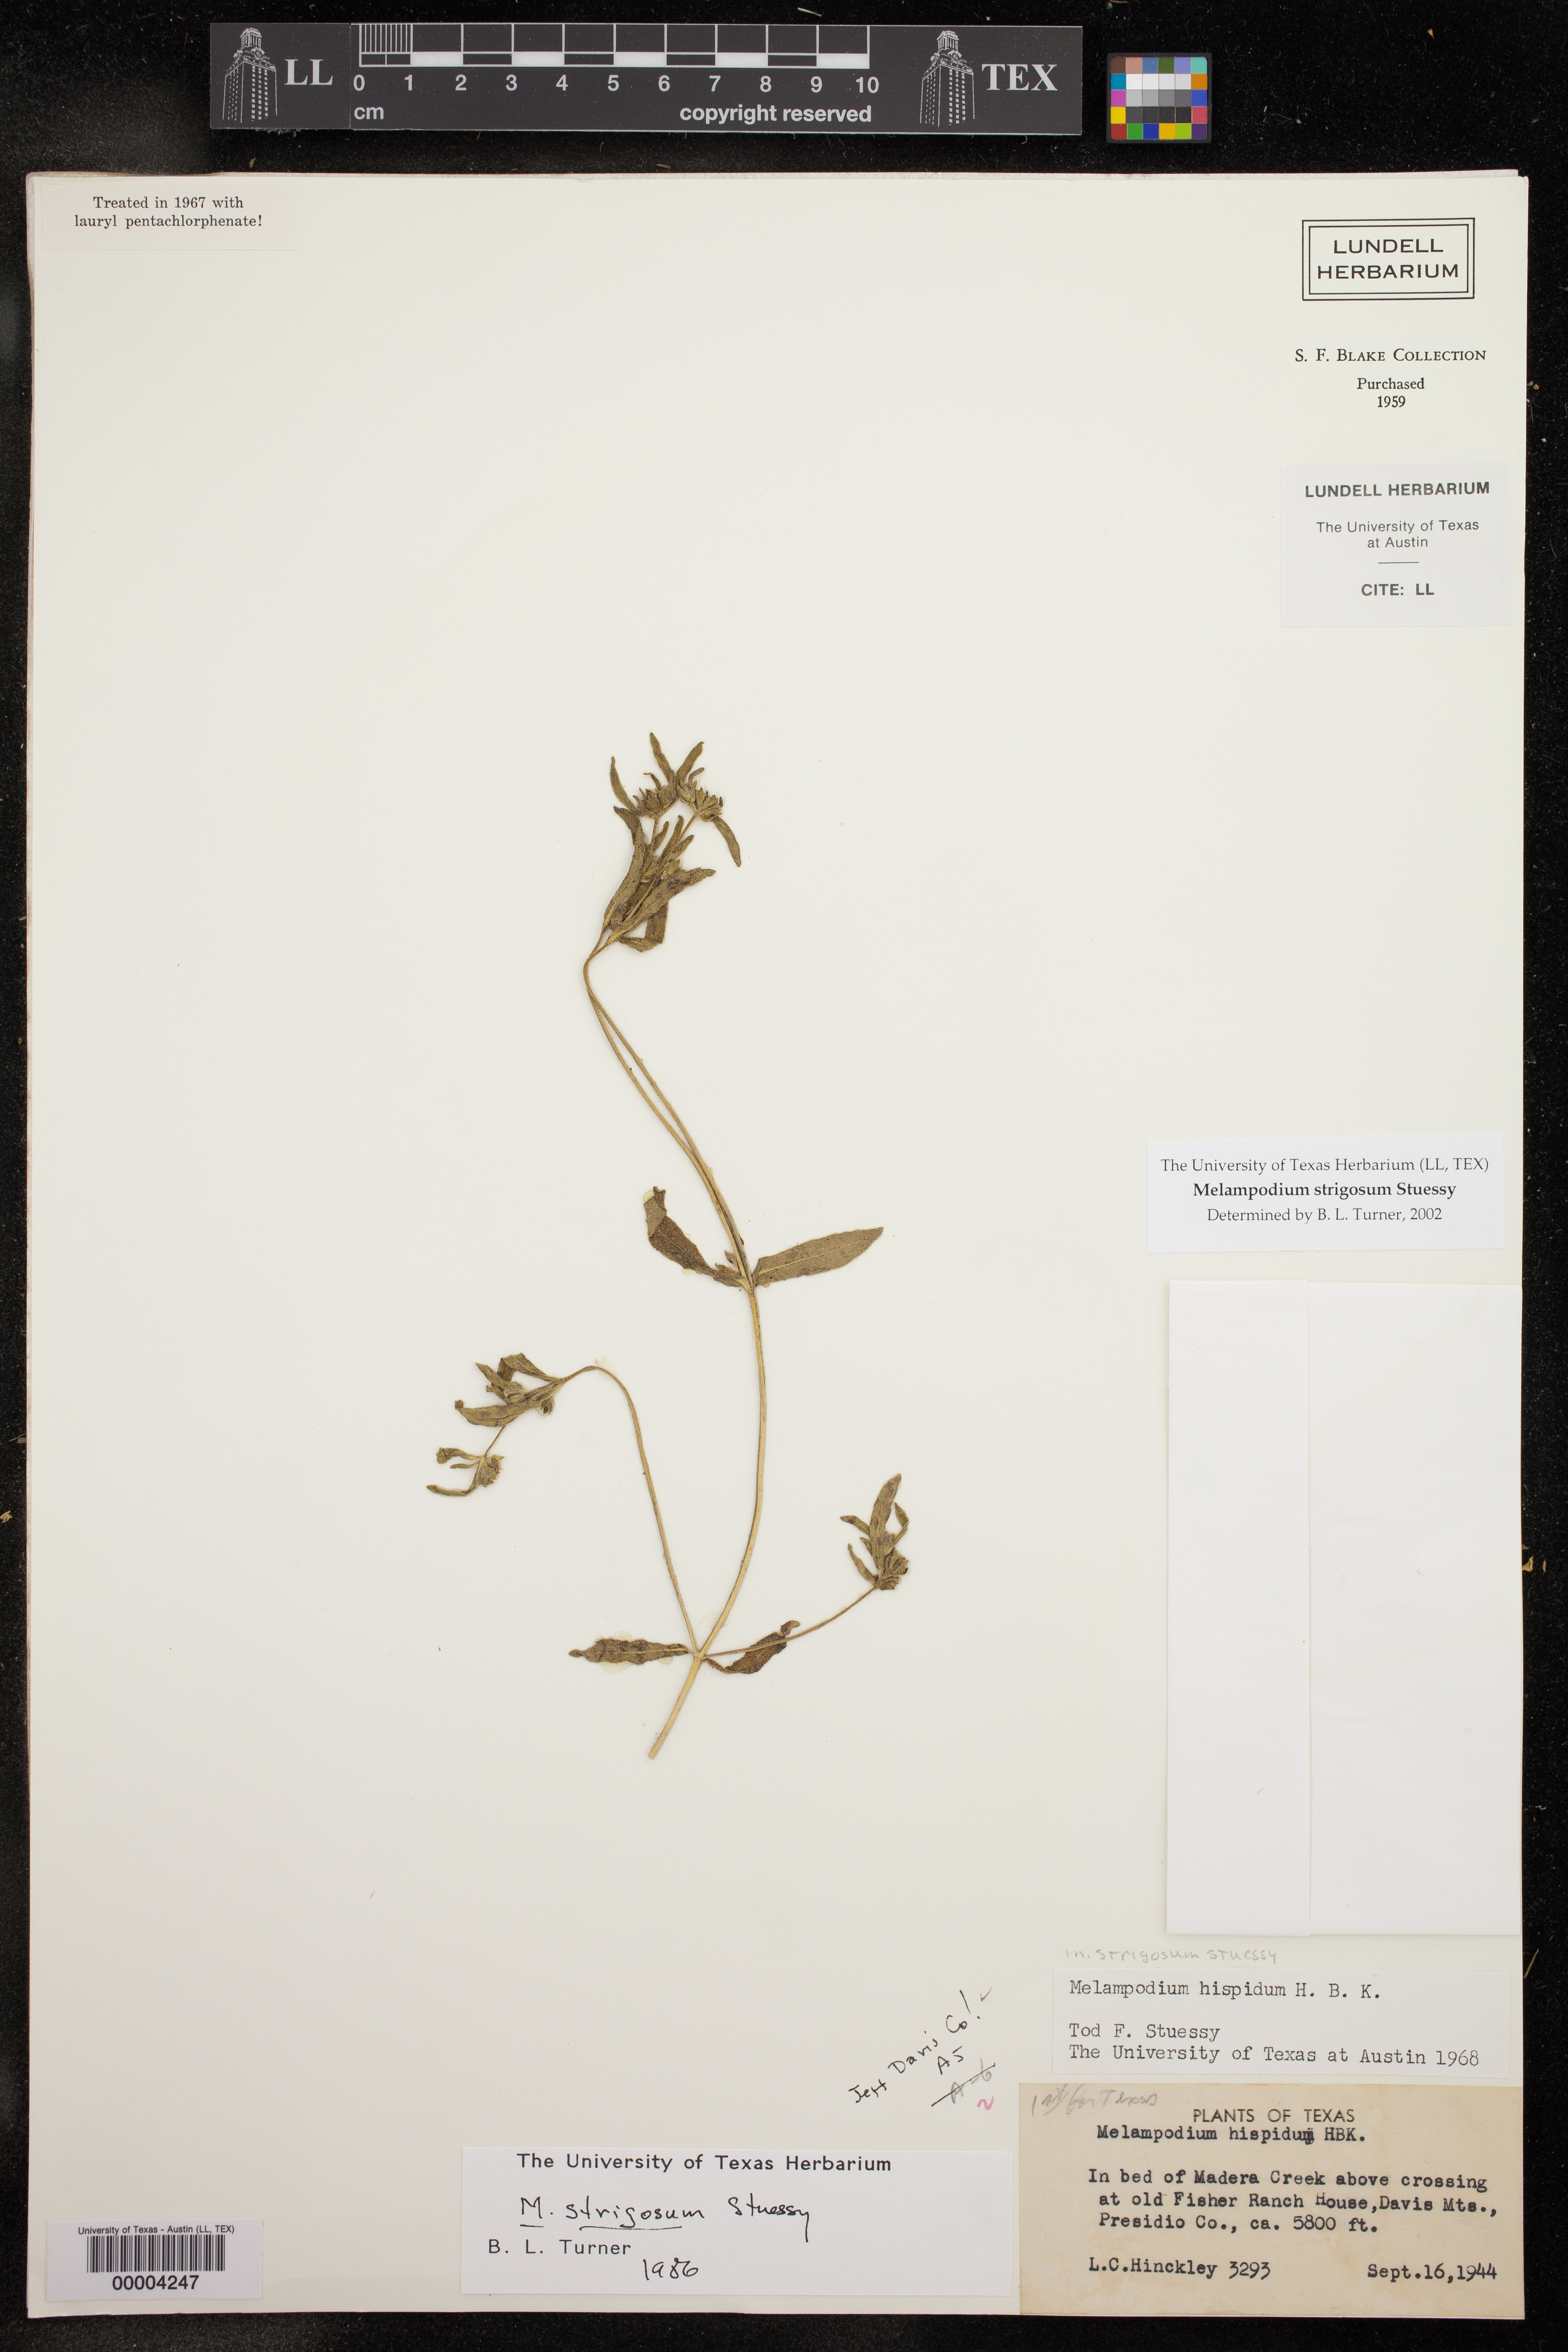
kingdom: Plantae
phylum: Tracheophyta
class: Magnoliopsida
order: Asterales
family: Asteraceae
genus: Melampodium
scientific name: Melampodium strigosum
